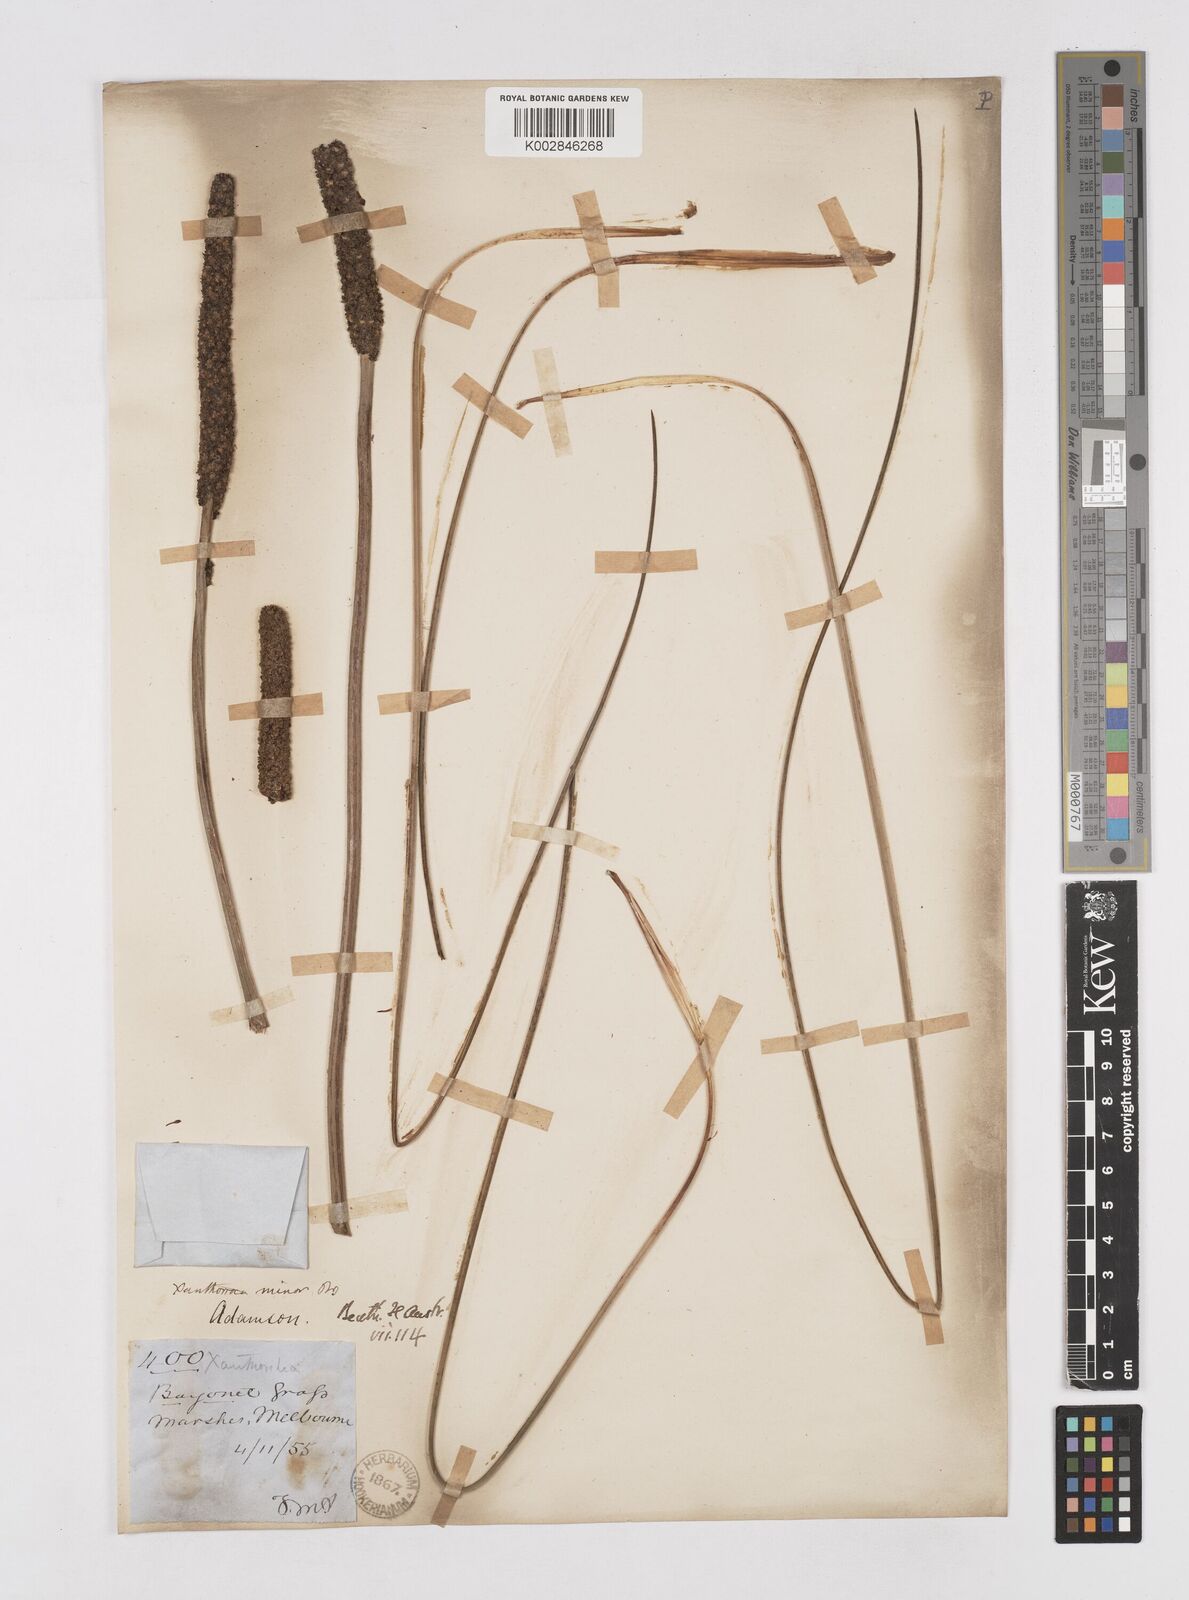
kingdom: Plantae
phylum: Tracheophyta
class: Liliopsida
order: Asparagales
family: Asphodelaceae
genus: Xanthorrhoea
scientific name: Xanthorrhoea minor
